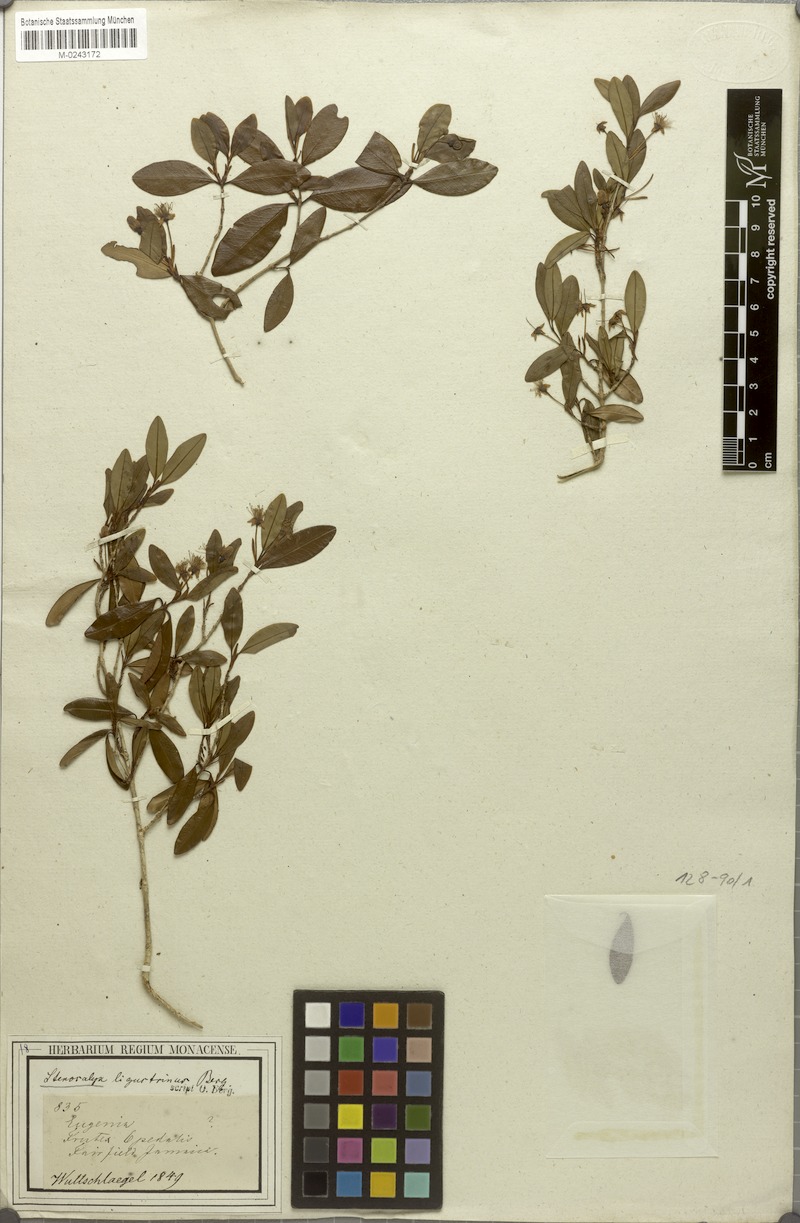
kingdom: Plantae
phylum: Tracheophyta
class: Magnoliopsida
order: Myrtales
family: Myrtaceae
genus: Eugenia
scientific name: Eugenia ligustrina
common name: Privet stopper
